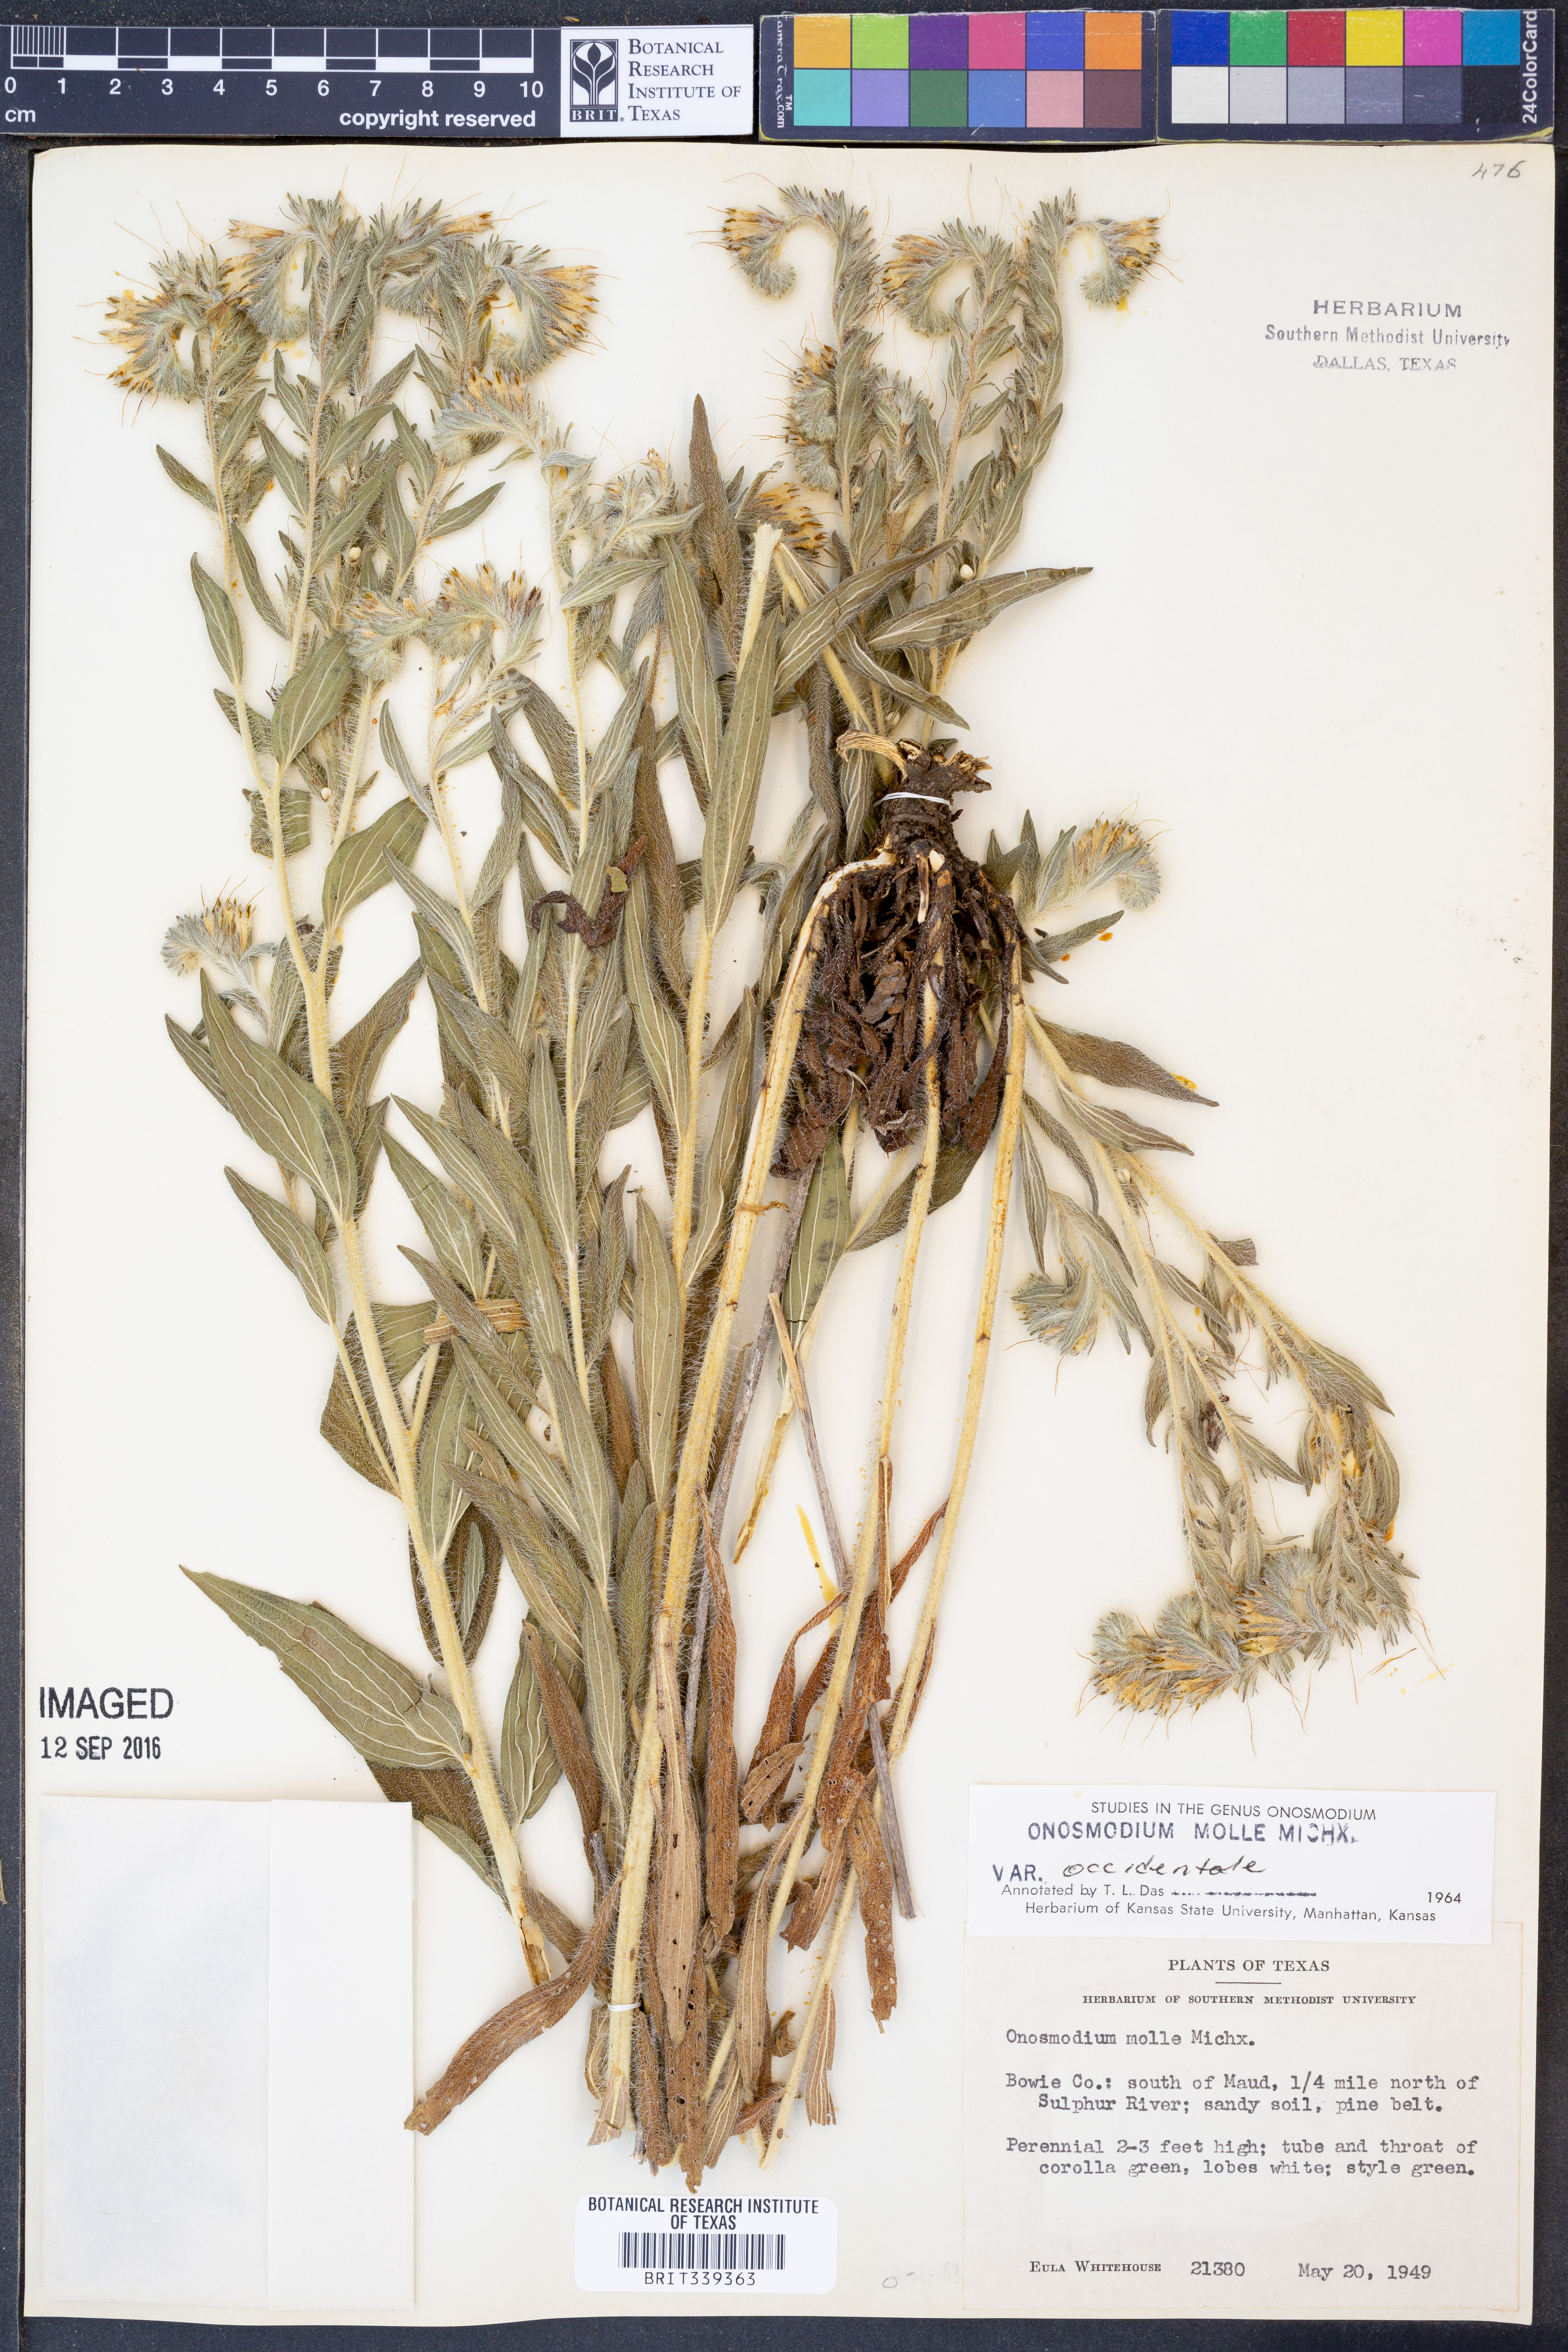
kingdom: Plantae
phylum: Tracheophyta
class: Magnoliopsida
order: Boraginales
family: Boraginaceae
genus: Lithospermum
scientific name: Lithospermum occidentale
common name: Western false gromwell
